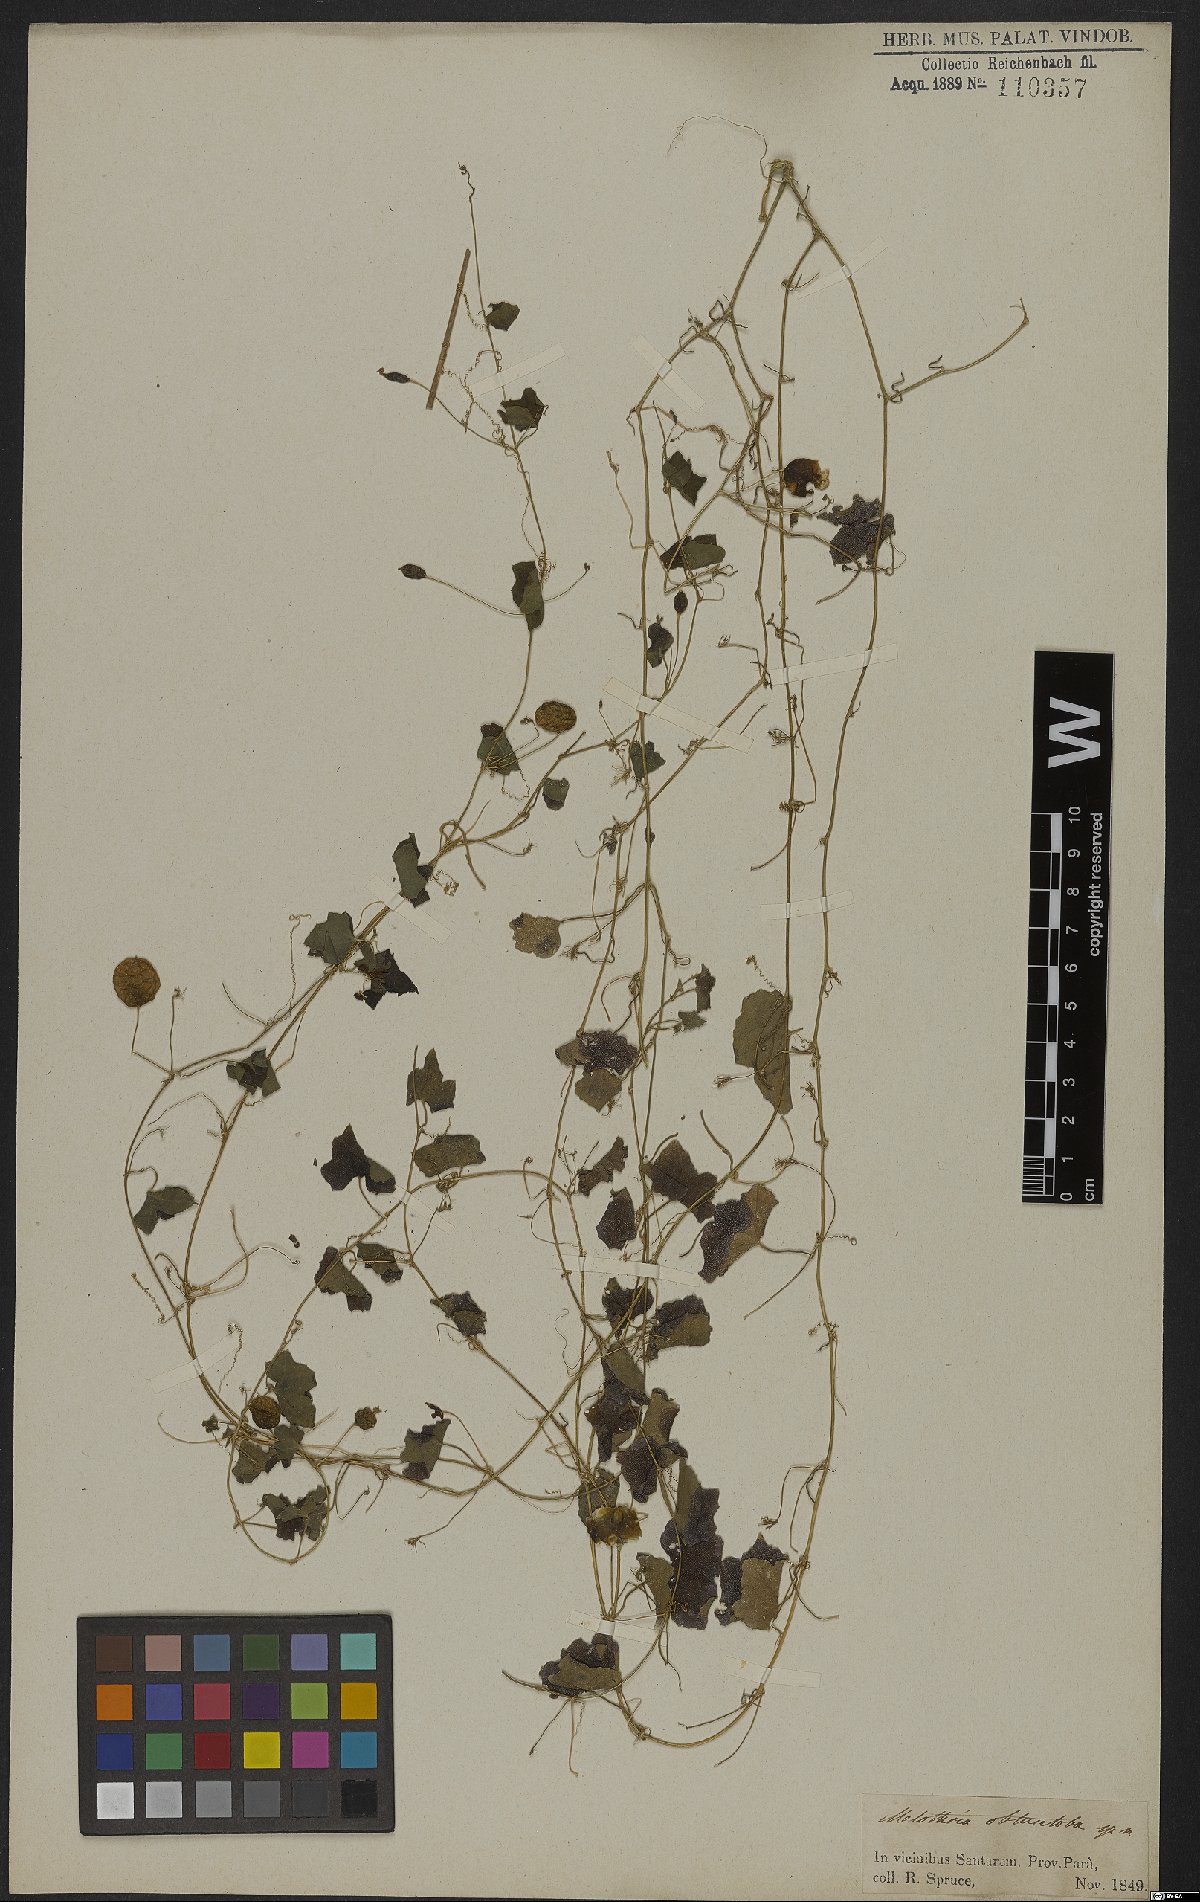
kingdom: Plantae
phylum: Tracheophyta
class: Magnoliopsida
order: Cucurbitales
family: Cucurbitaceae
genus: Kedrostis
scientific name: Kedrostis foetidissima
